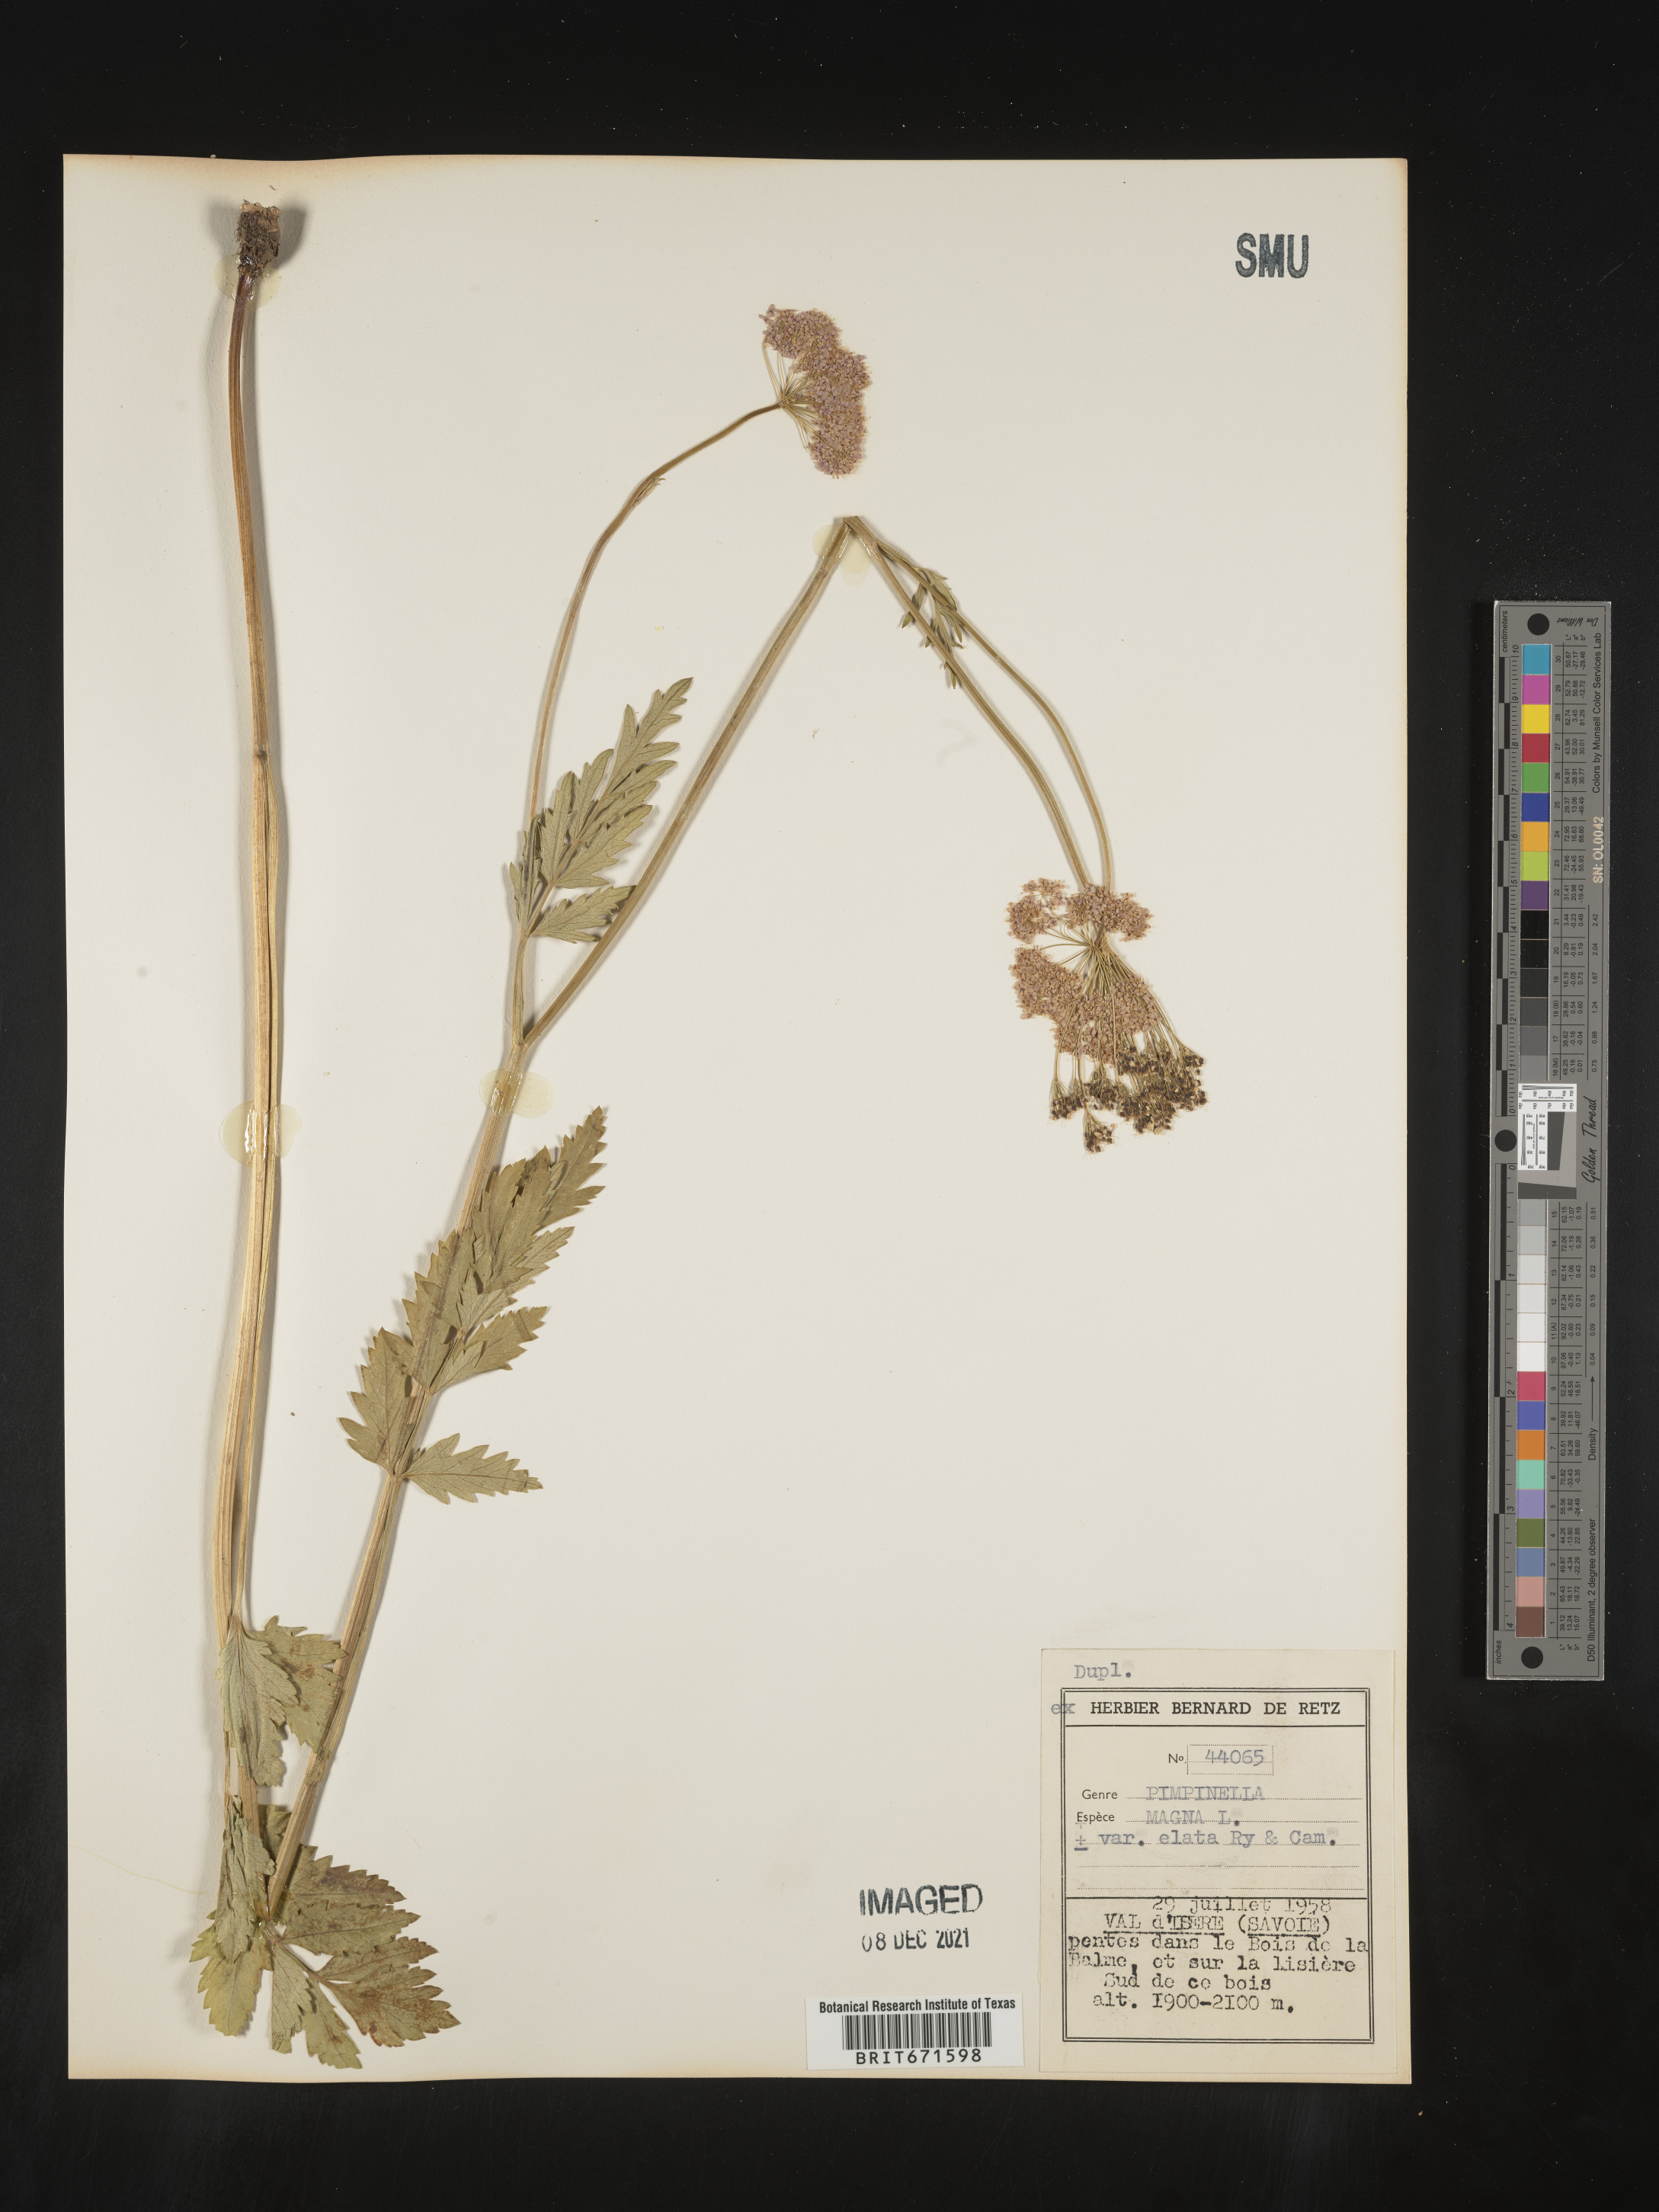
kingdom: Plantae
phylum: Tracheophyta
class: Magnoliopsida
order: Apiales
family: Apiaceae
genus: Pimpinella
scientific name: Pimpinella
